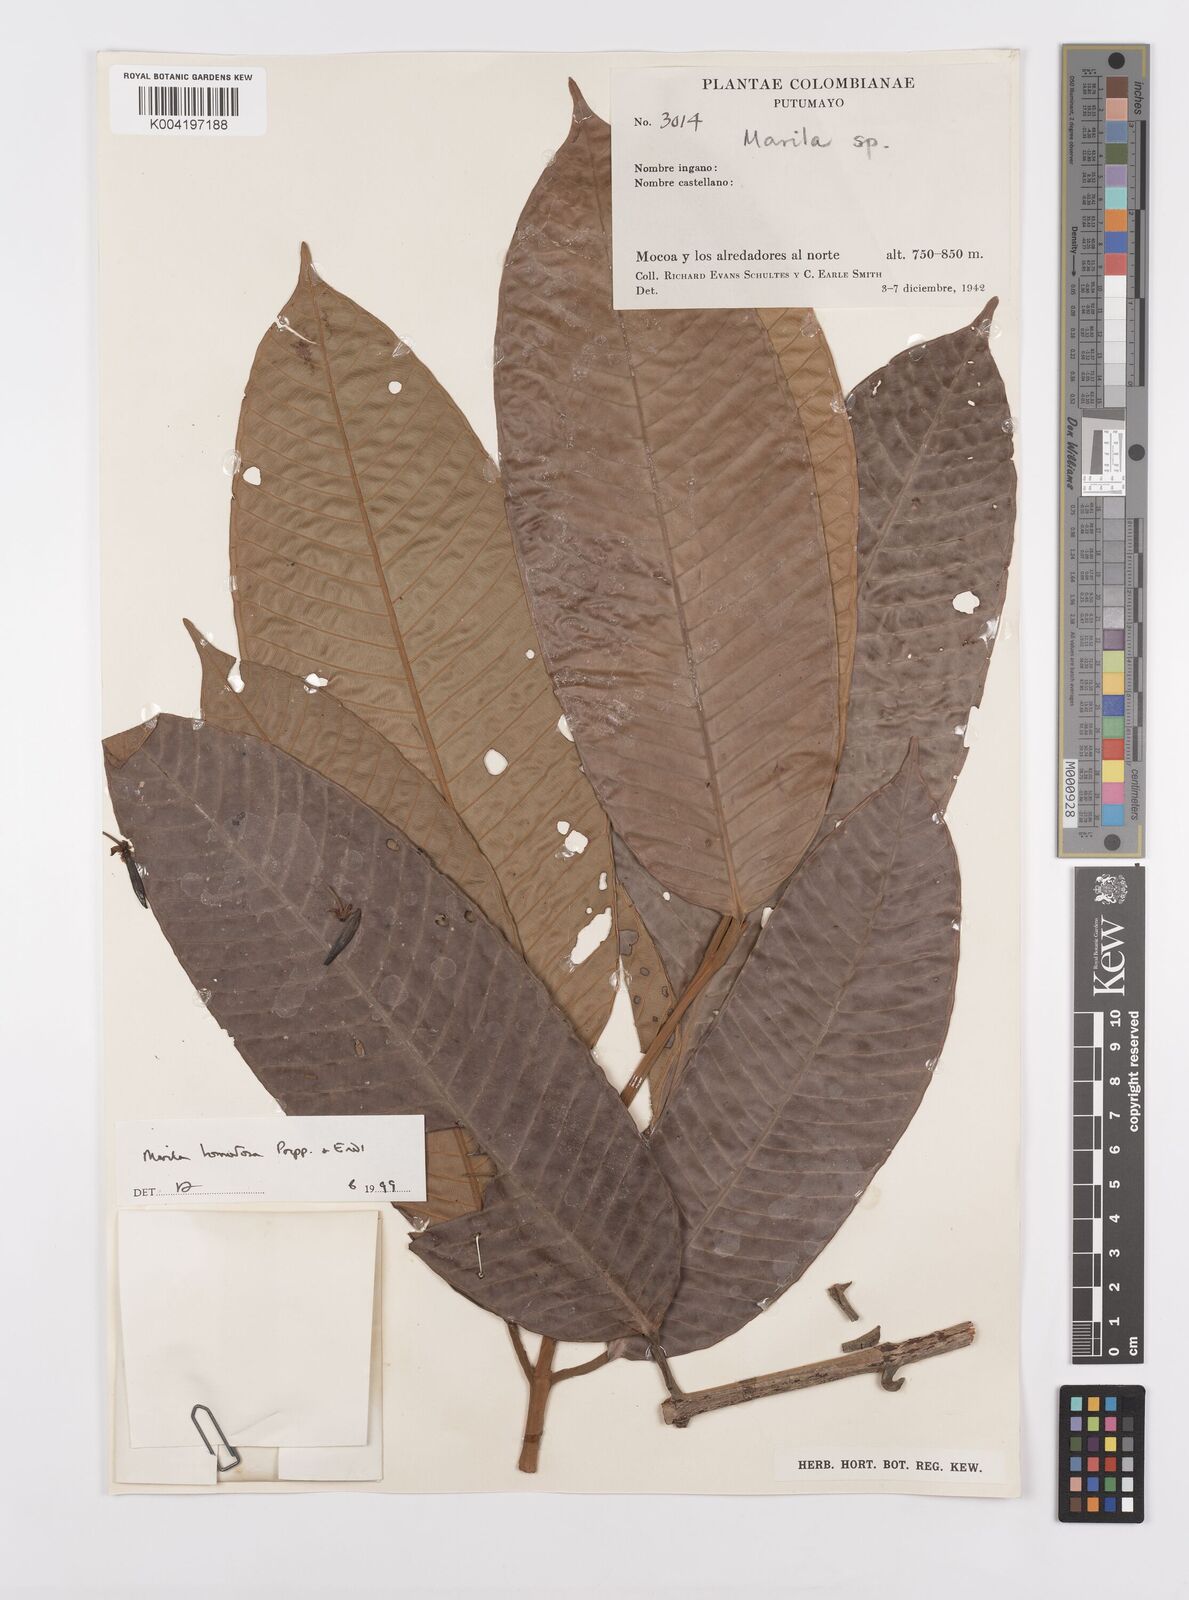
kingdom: Plantae
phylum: Tracheophyta
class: Magnoliopsida
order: Malpighiales
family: Calophyllaceae
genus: Marila
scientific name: Marila tomentosa
